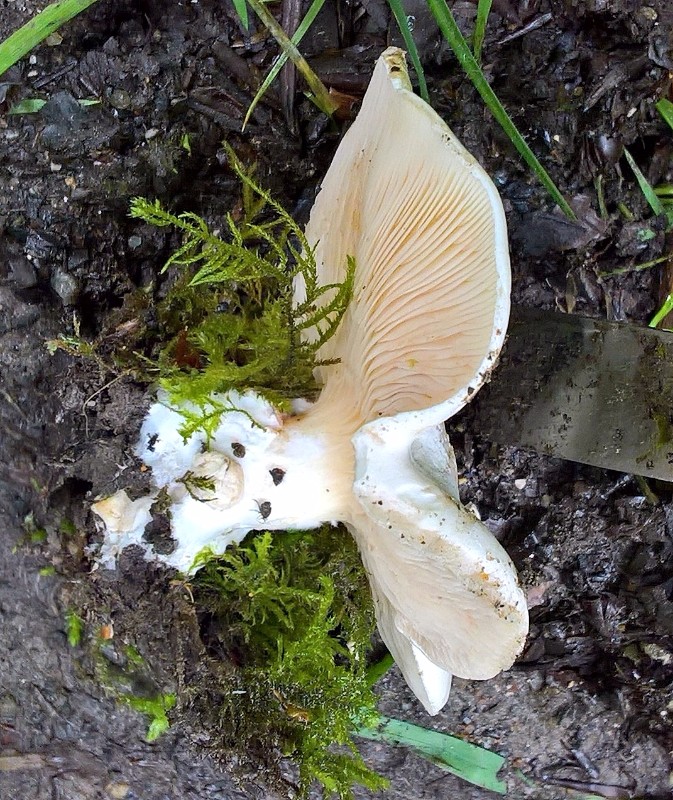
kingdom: Fungi
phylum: Basidiomycota
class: Agaricomycetes
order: Agaricales
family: Entolomataceae
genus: Clitopilus
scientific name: Clitopilus prunulus
